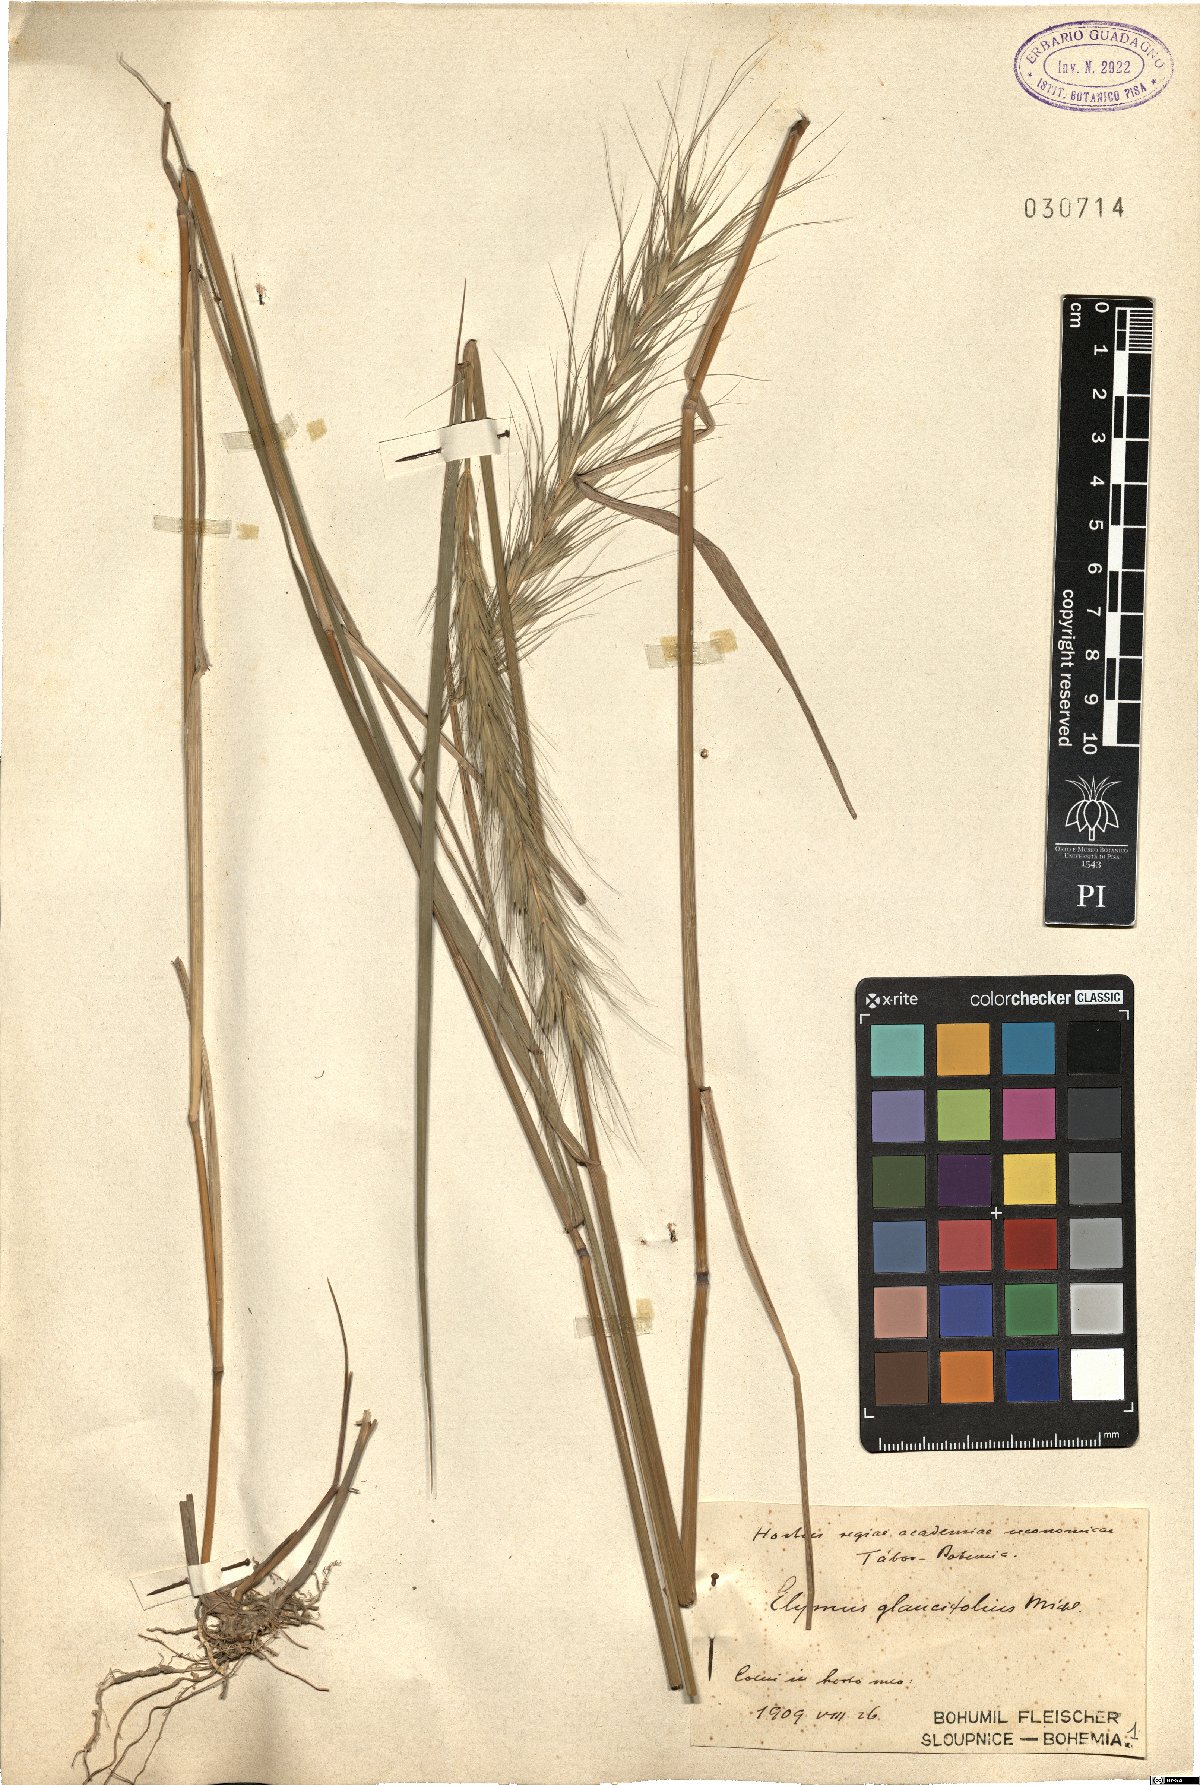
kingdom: Plantae
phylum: Tracheophyta
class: Liliopsida
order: Poales
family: Poaceae
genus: Elymus
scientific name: Elymus canadensis
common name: Canada wild rye
